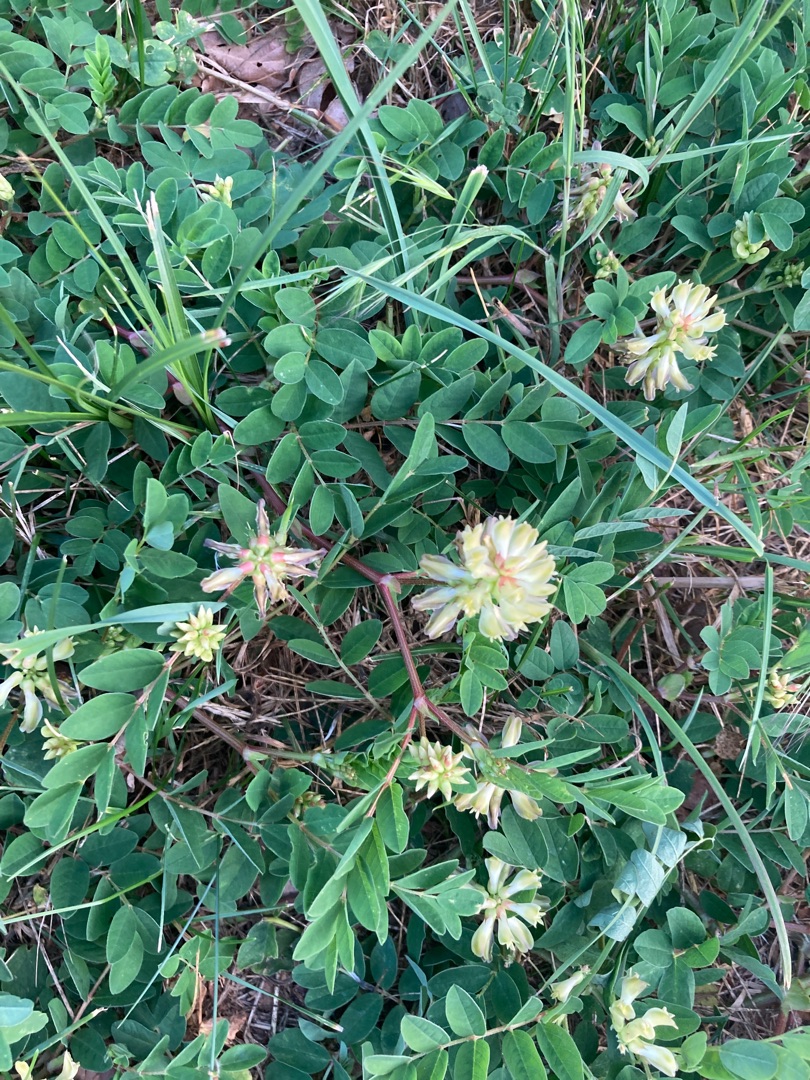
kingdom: Plantae
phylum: Tracheophyta
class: Magnoliopsida
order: Fabales
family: Fabaceae
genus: Astragalus
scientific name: Astragalus glycyphyllos
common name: Sød astragel
